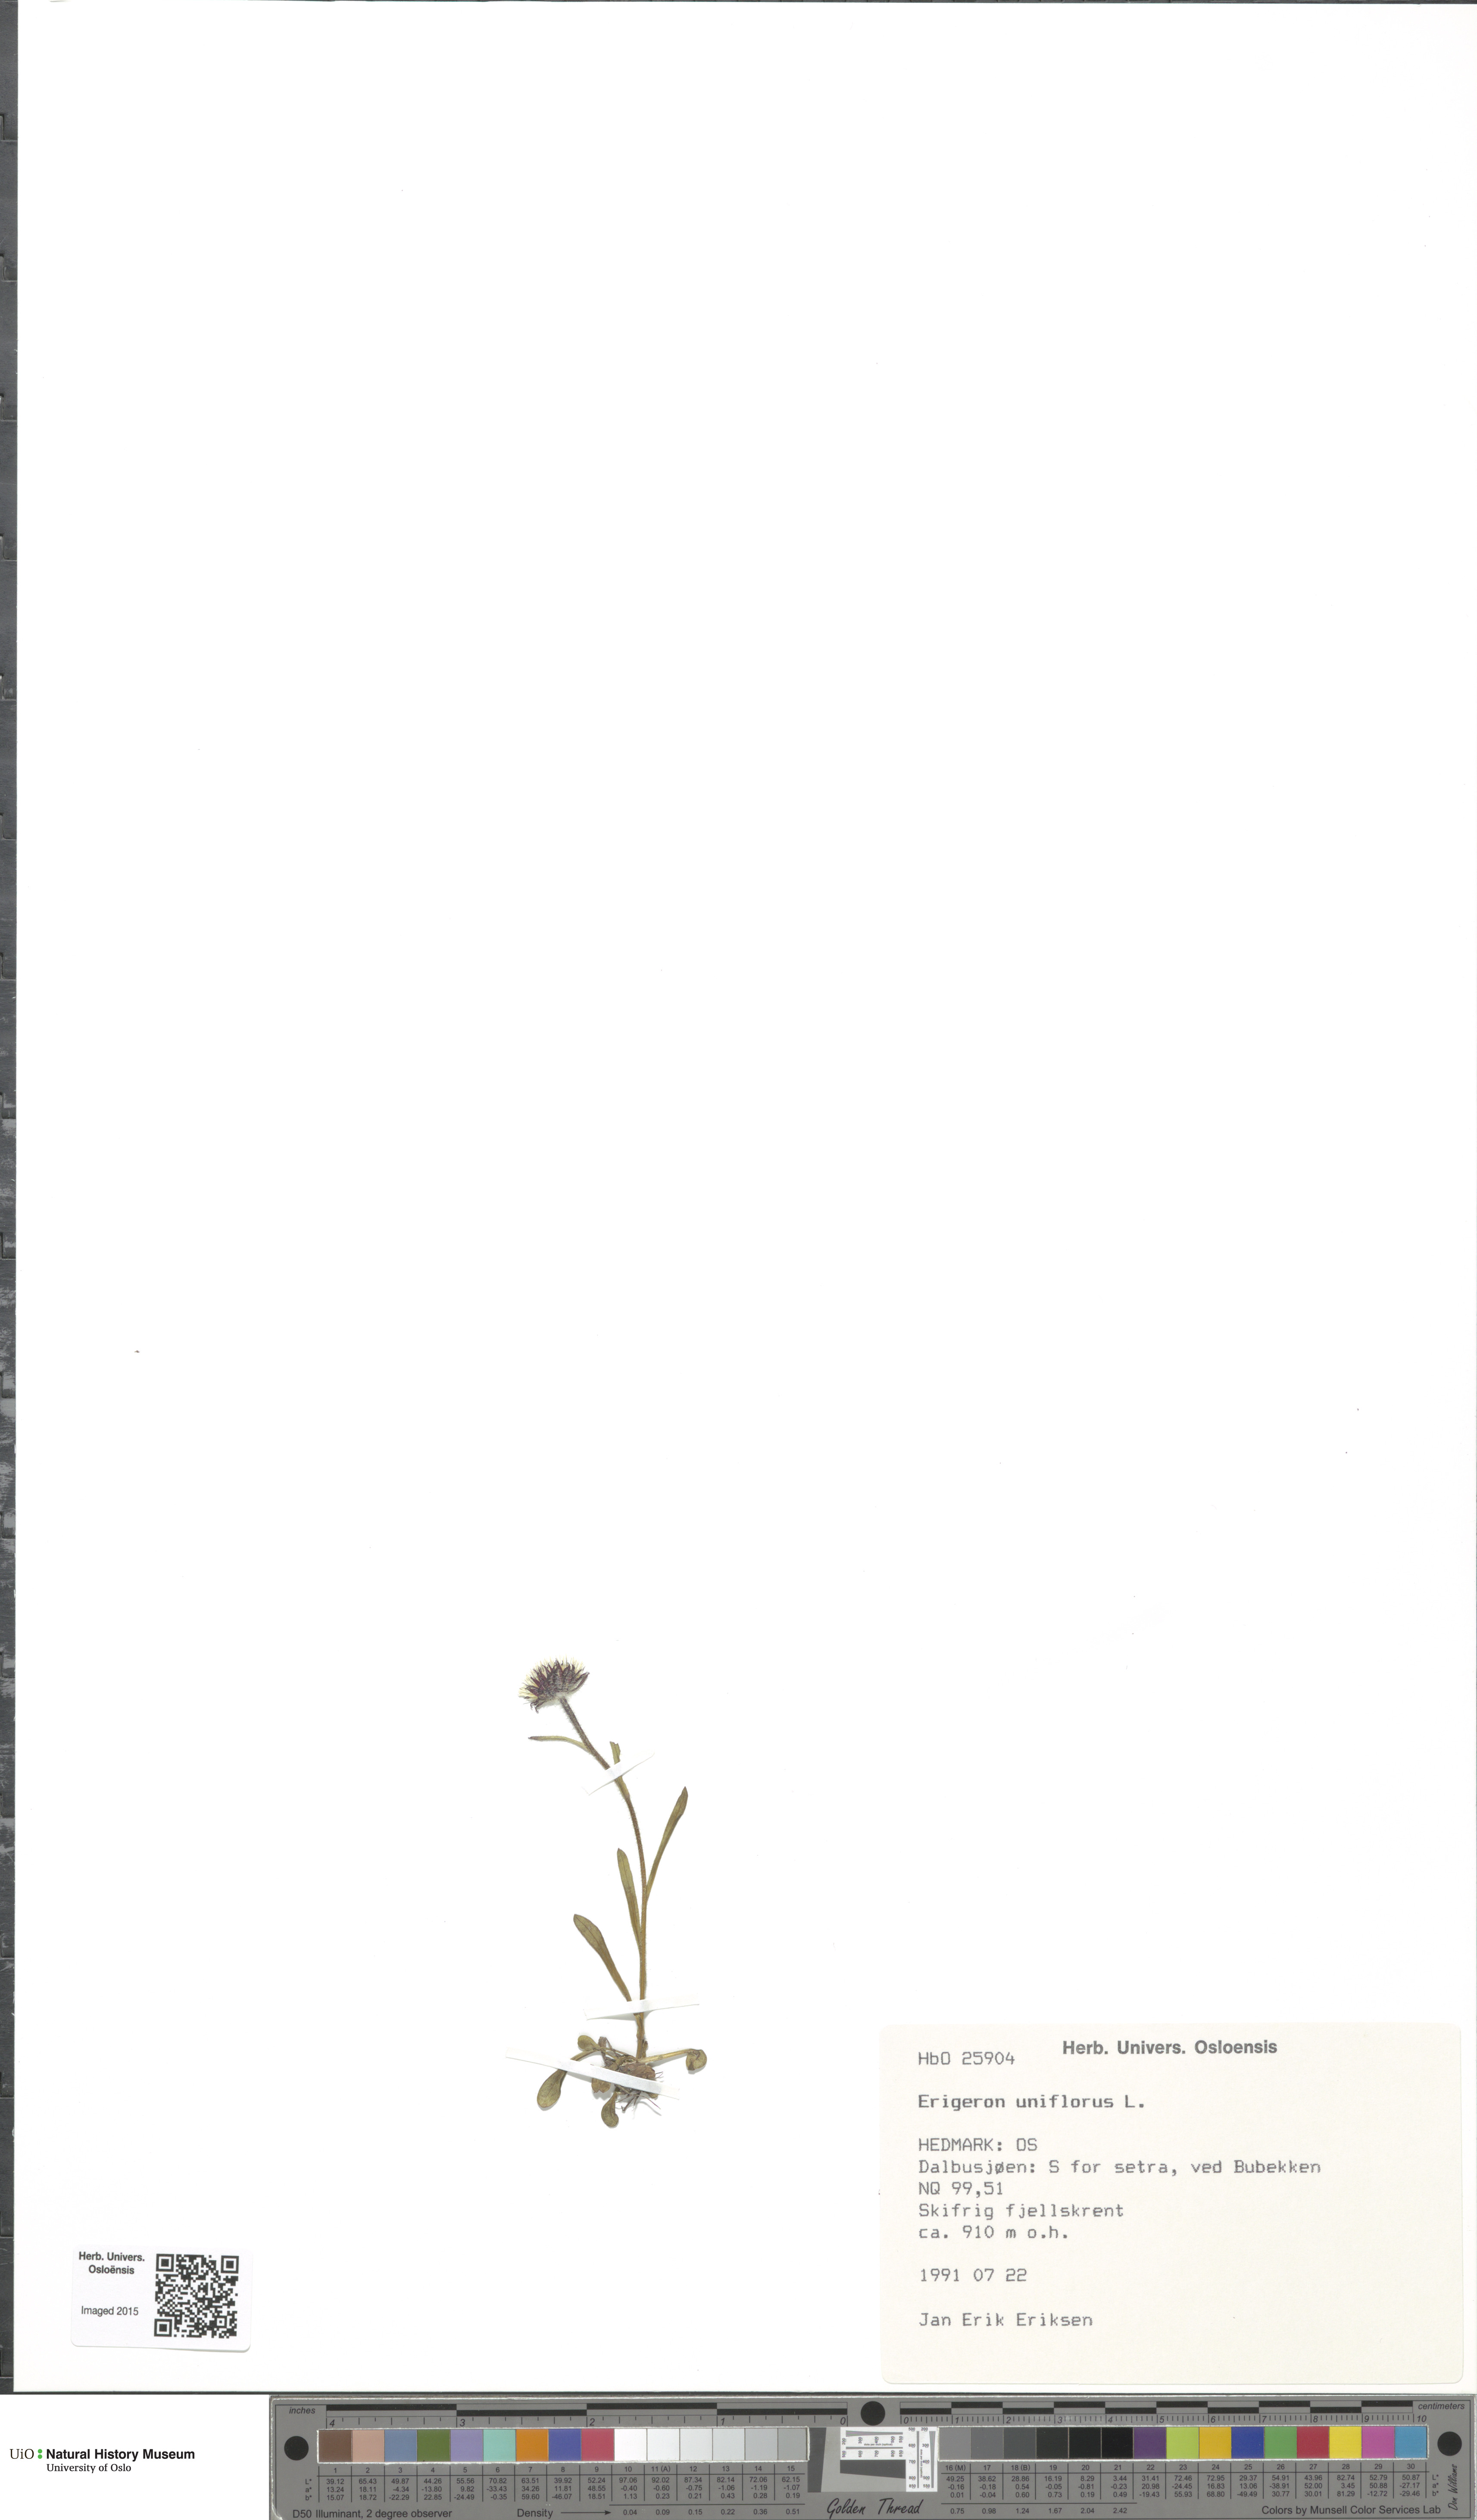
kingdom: Plantae
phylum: Tracheophyta
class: Magnoliopsida
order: Asterales
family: Asteraceae
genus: Erigeron
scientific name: Erigeron uniflorus
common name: Northern daisy
